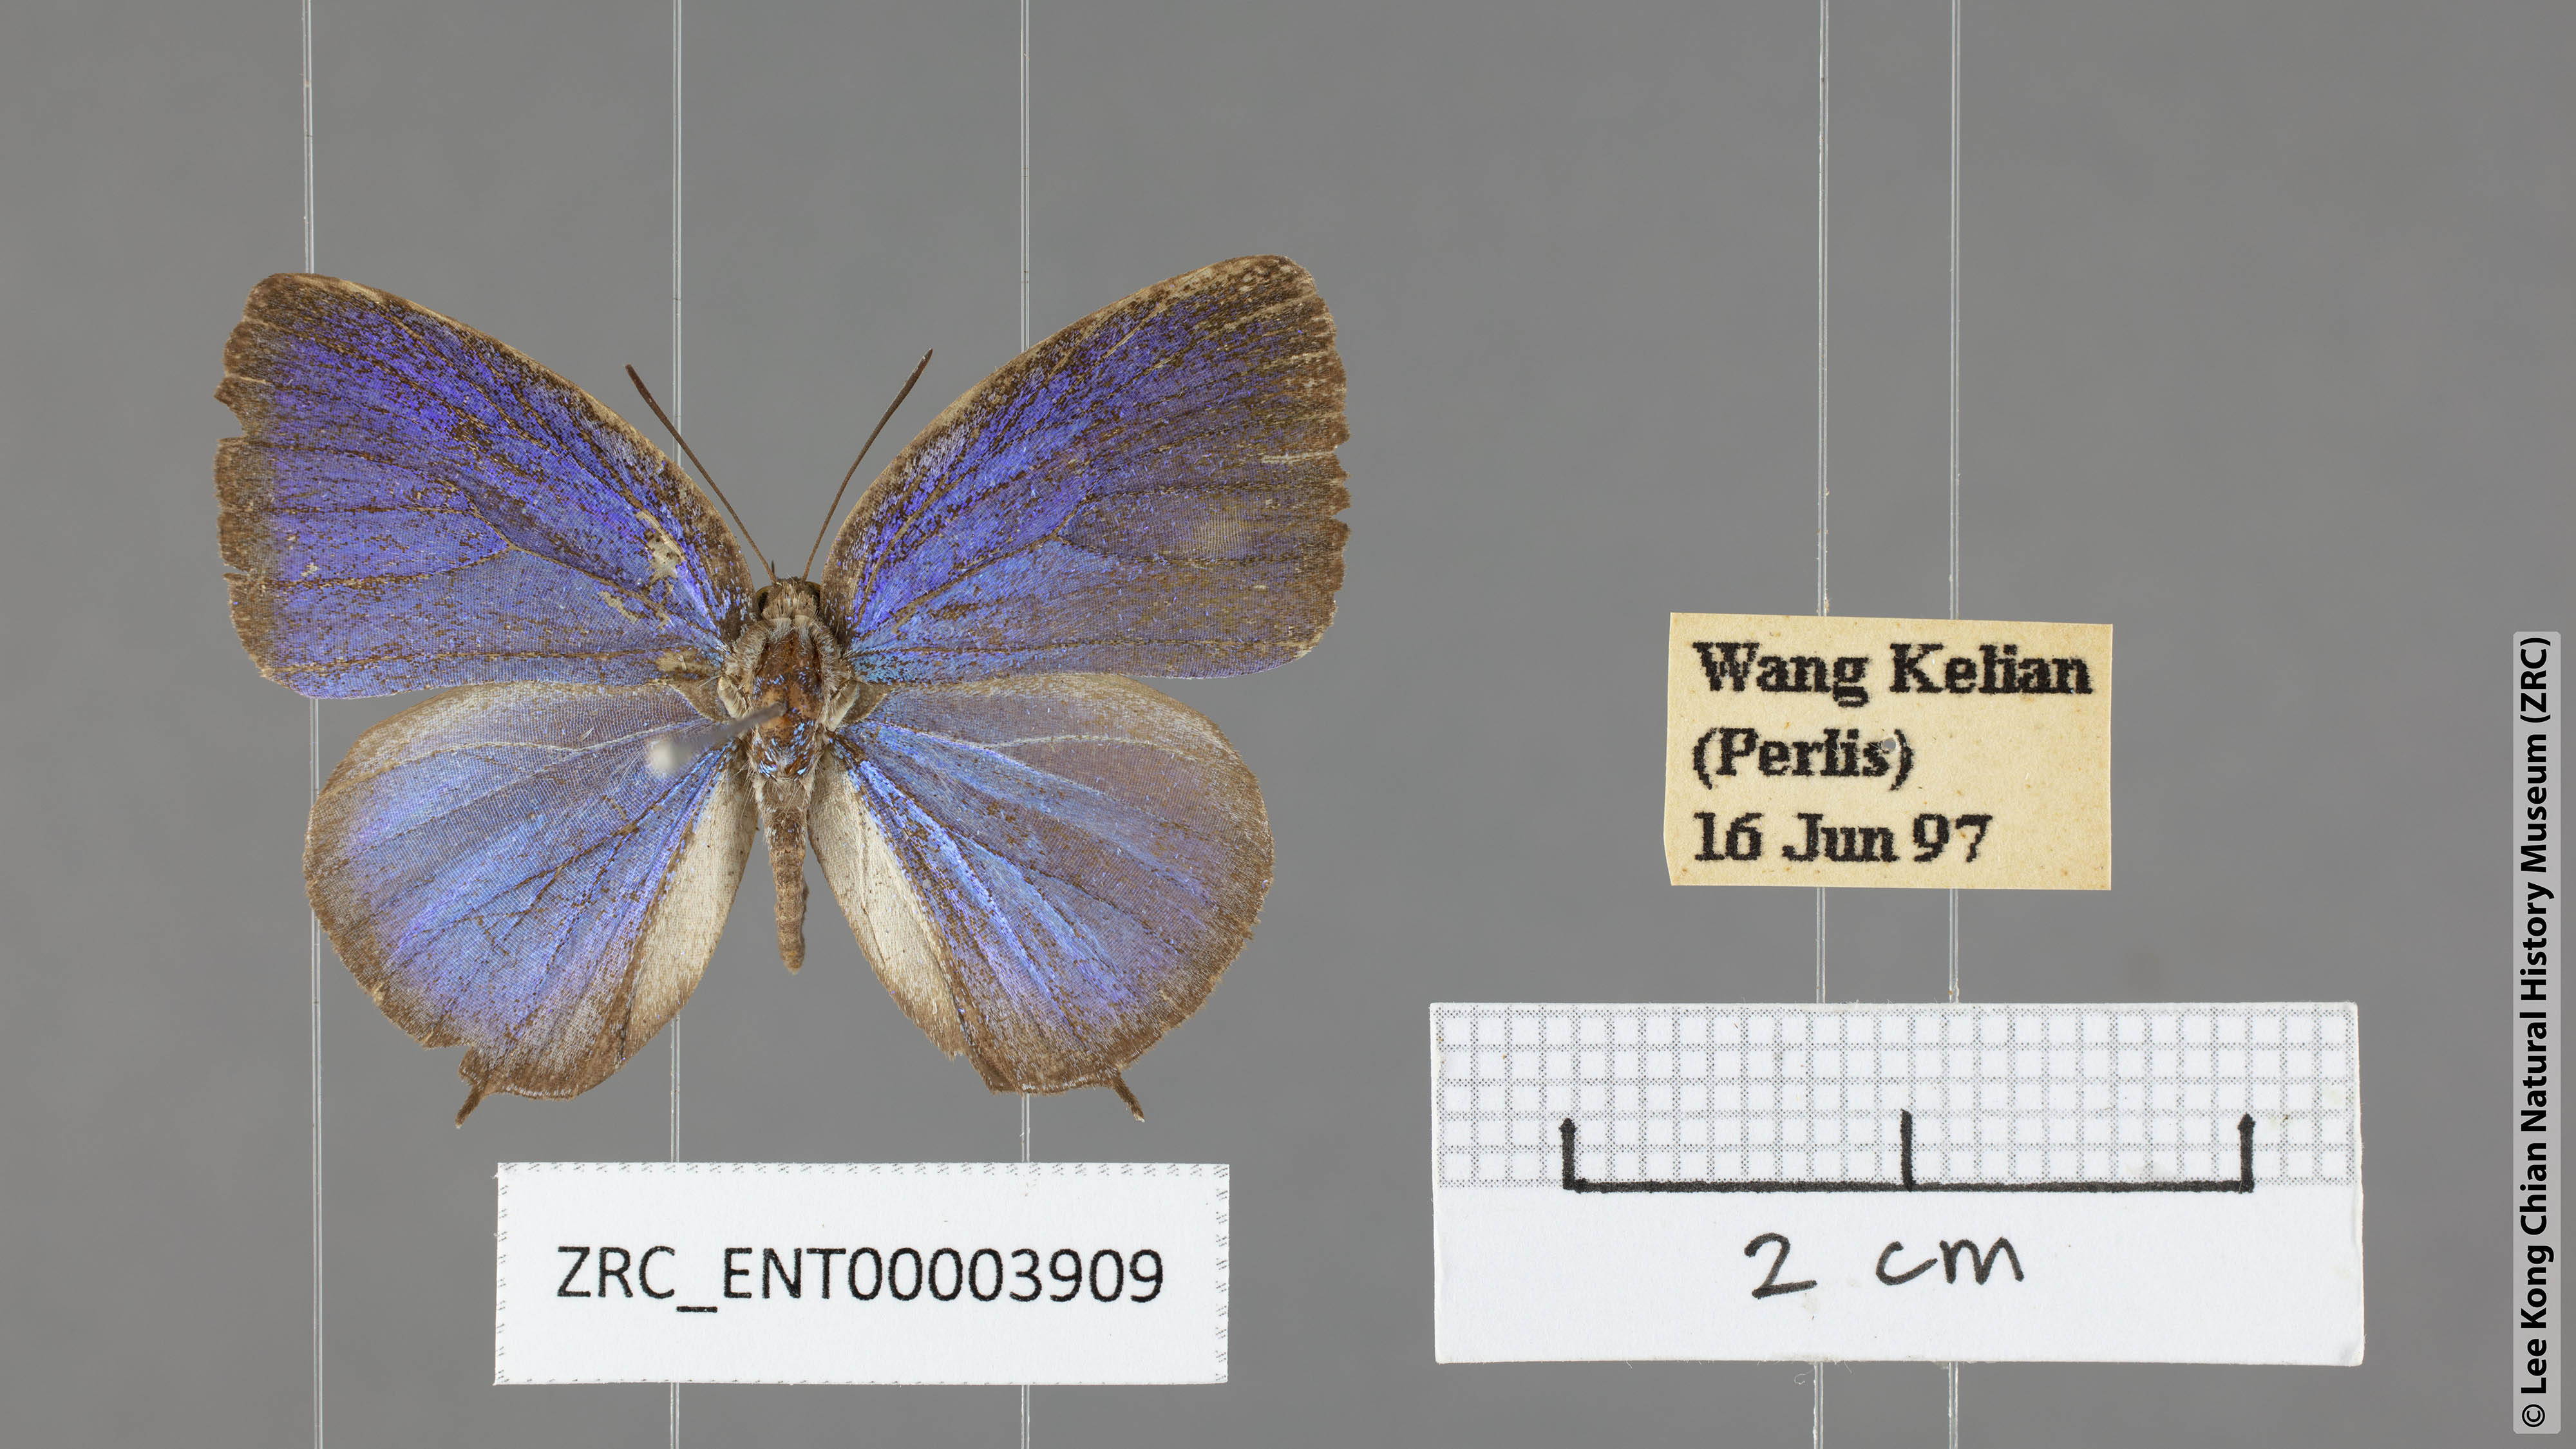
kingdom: Animalia
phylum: Arthropoda
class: Insecta
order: Lepidoptera
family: Lycaenidae
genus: Arhopala
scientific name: Arhopala democritus
